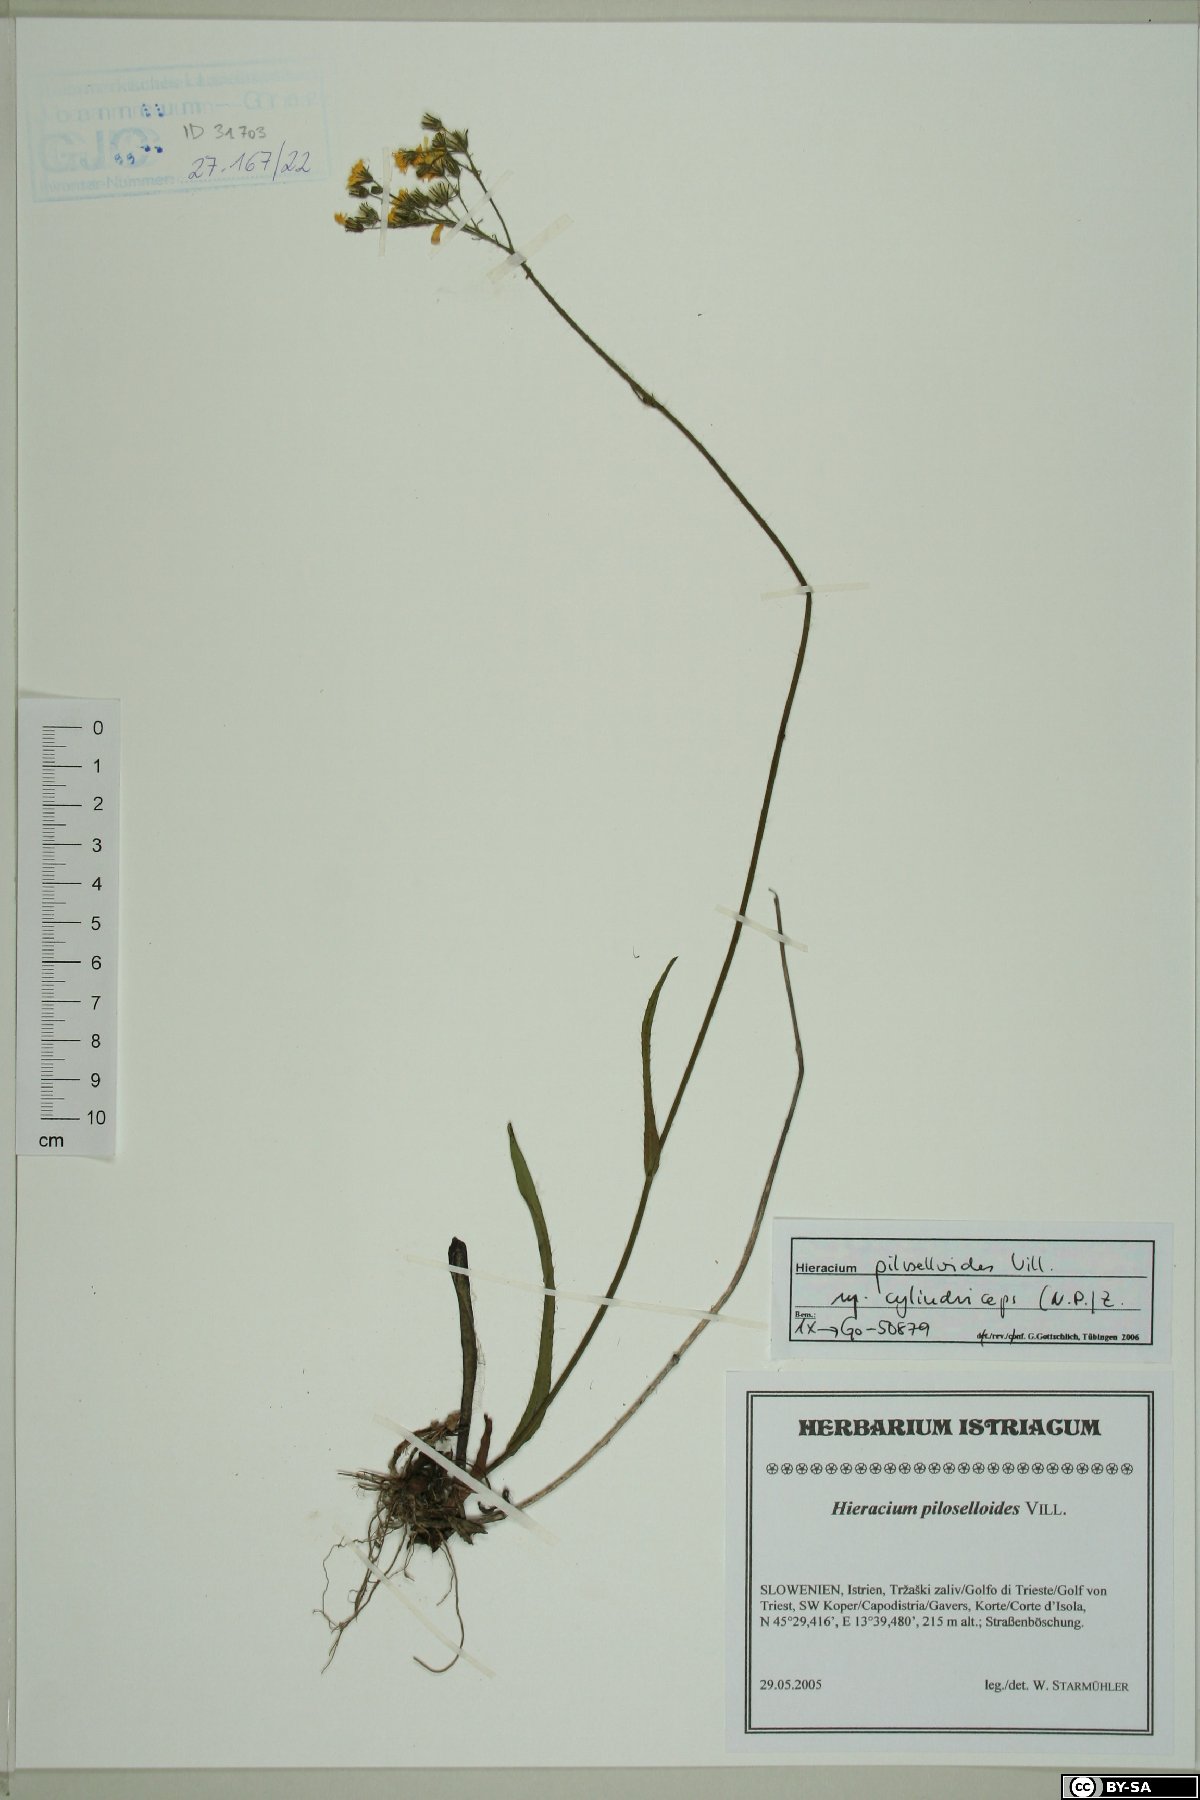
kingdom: Plantae
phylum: Tracheophyta
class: Magnoliopsida
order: Asterales
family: Asteraceae
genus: Pilosella
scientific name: Pilosella piloselloides
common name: Glaucous king-devil
